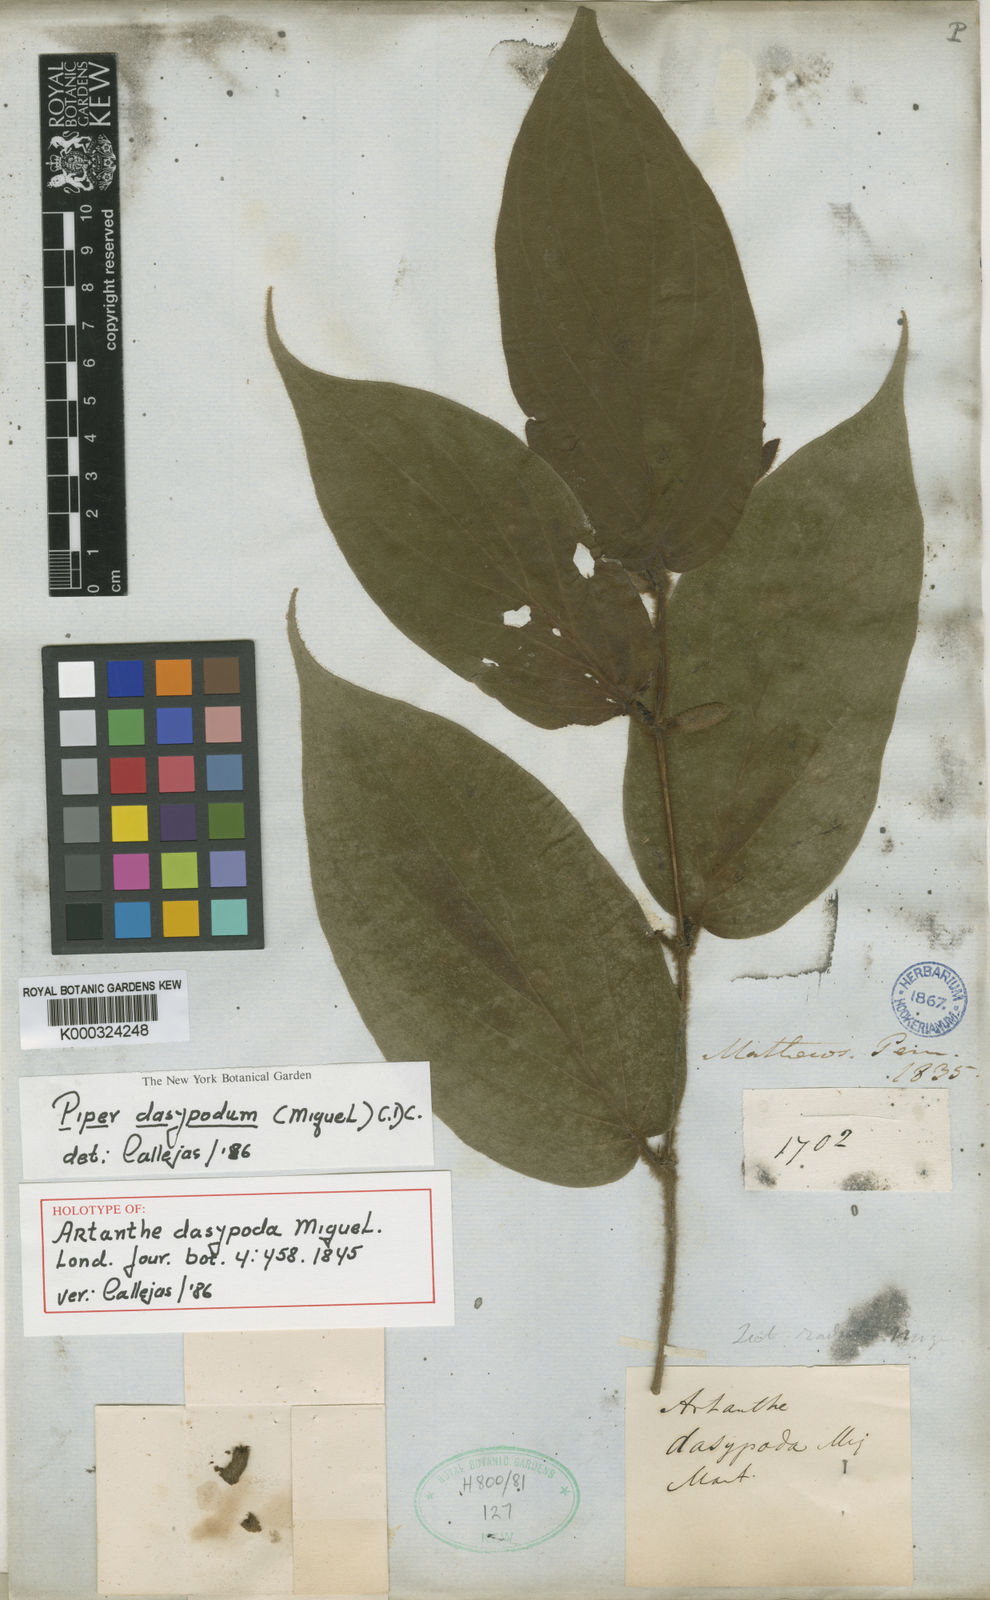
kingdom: Plantae
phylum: Tracheophyta
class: Magnoliopsida
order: Piperales
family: Piperaceae
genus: Piper
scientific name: Piper dasypodum
